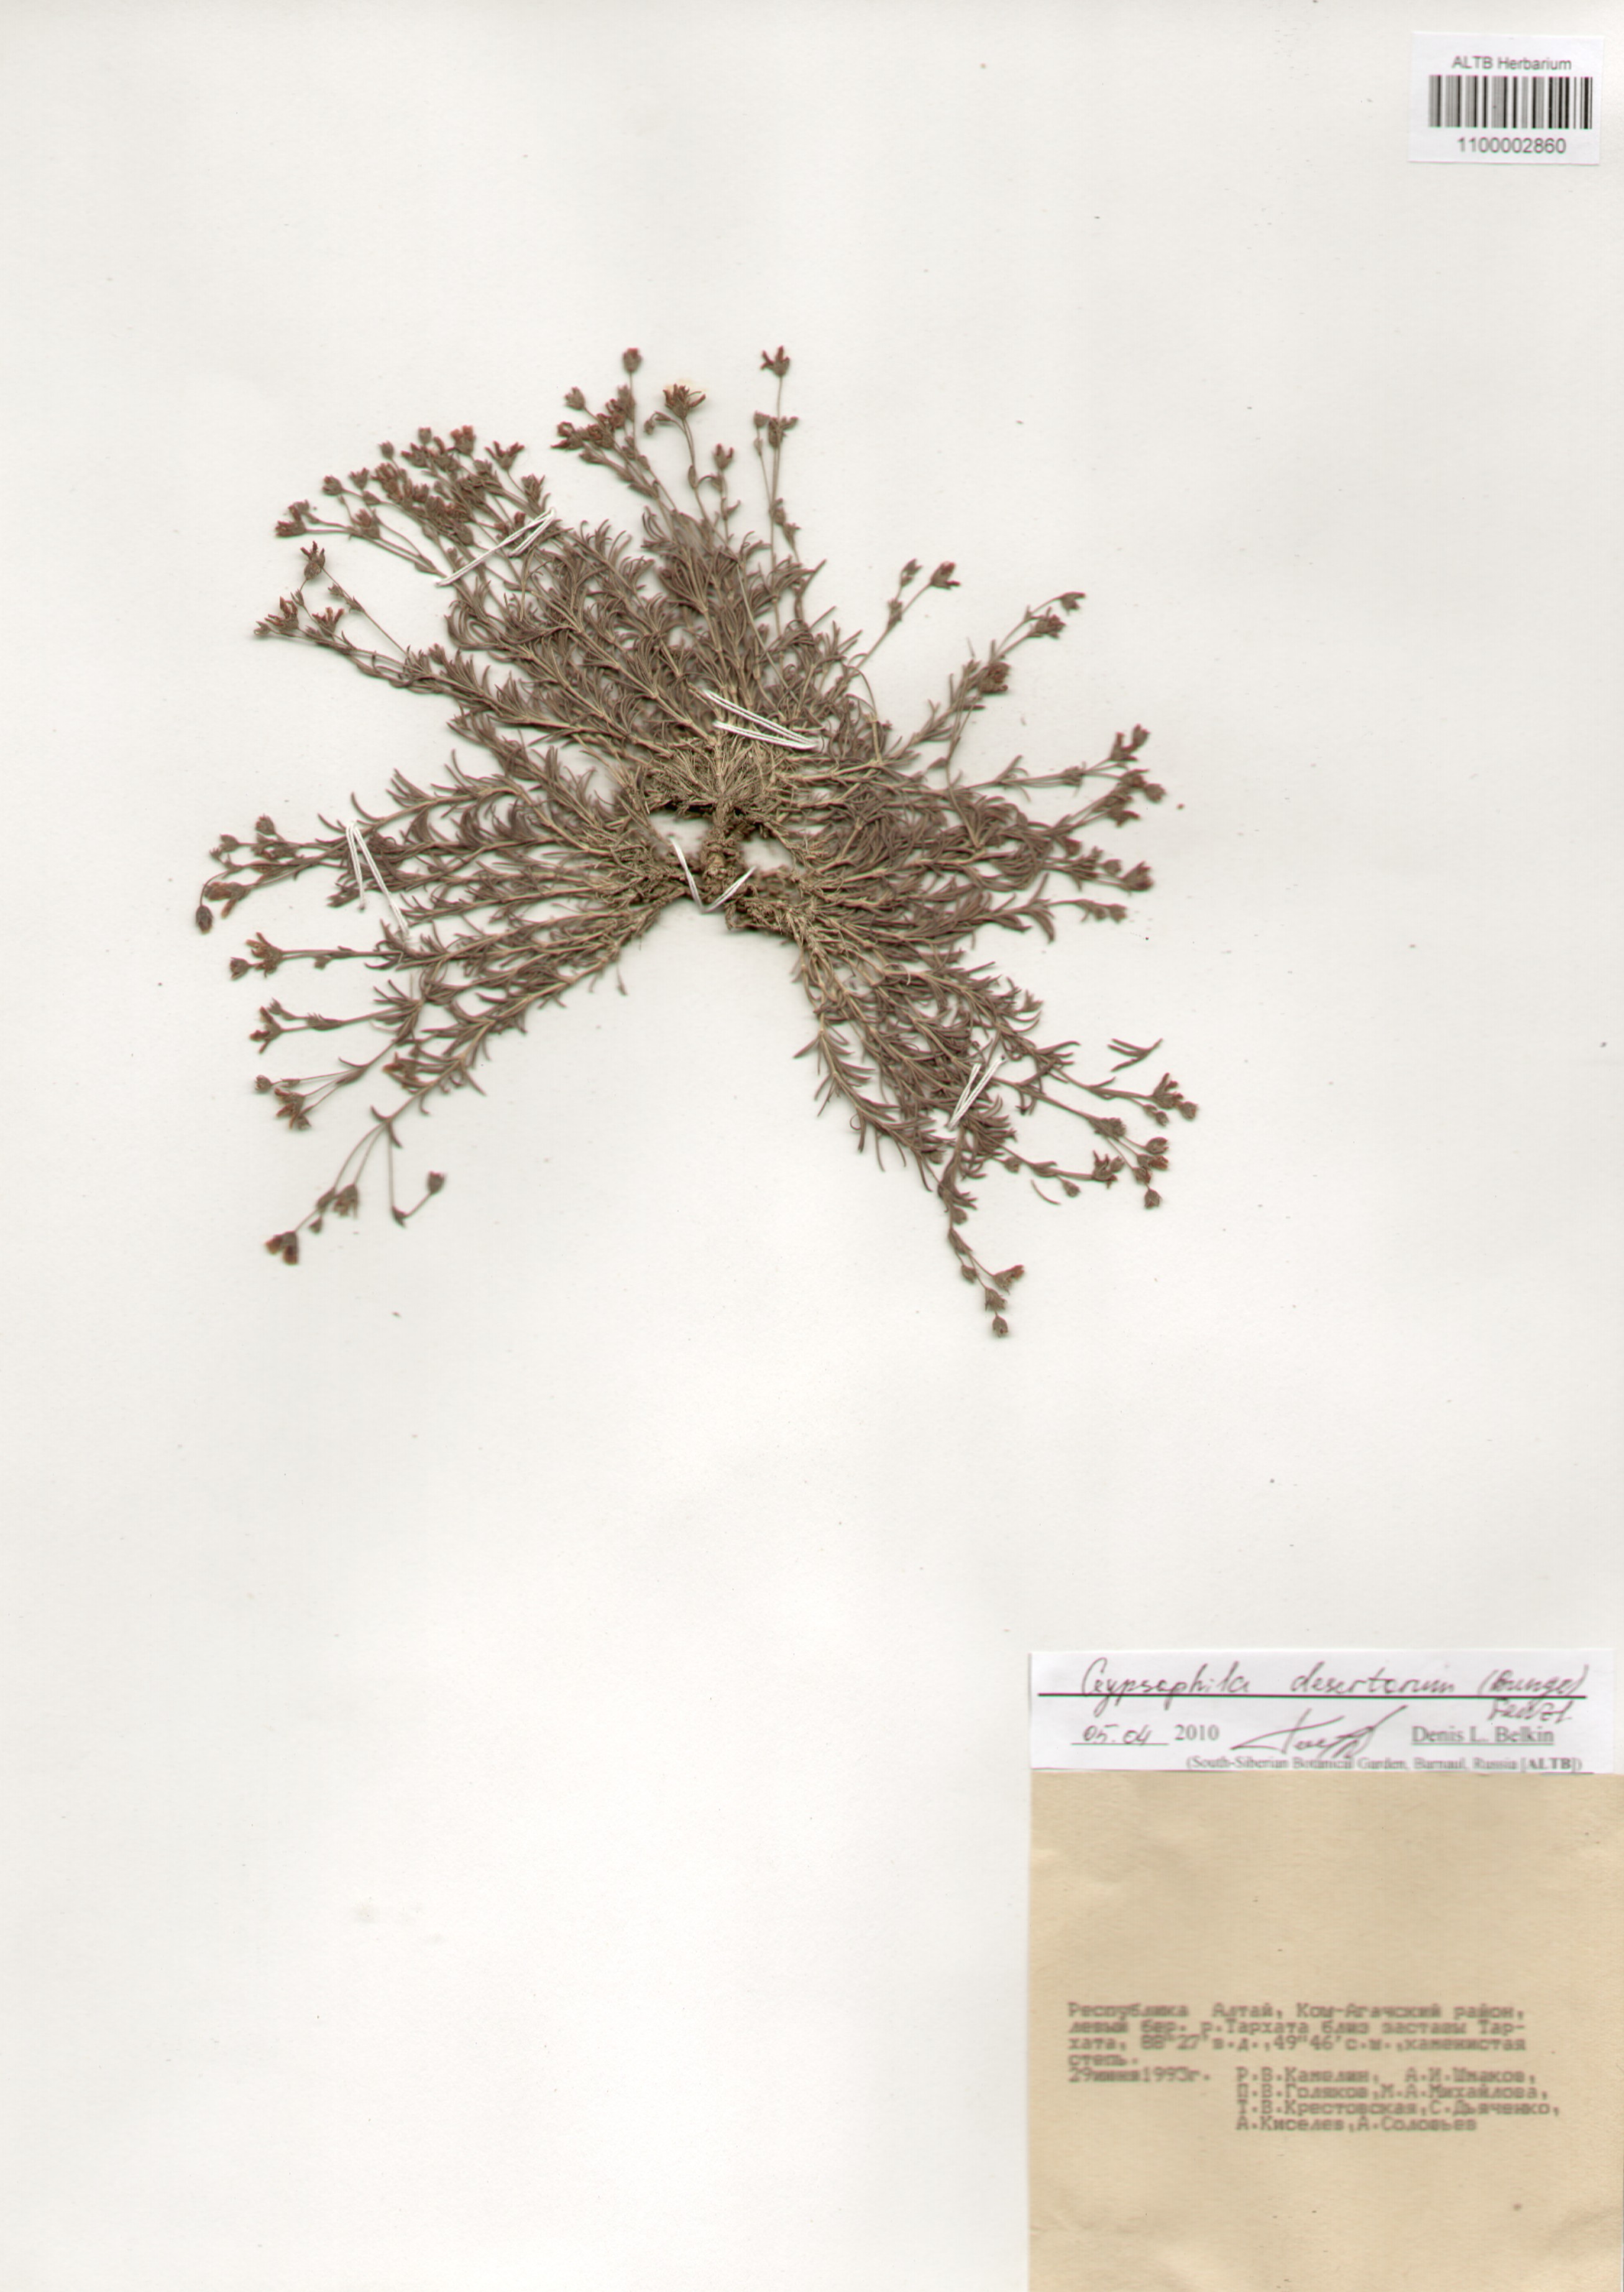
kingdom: Plantae
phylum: Tracheophyta
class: Magnoliopsida
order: Caryophyllales
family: Caryophyllaceae
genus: Heterochroa
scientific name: Heterochroa desertorum
